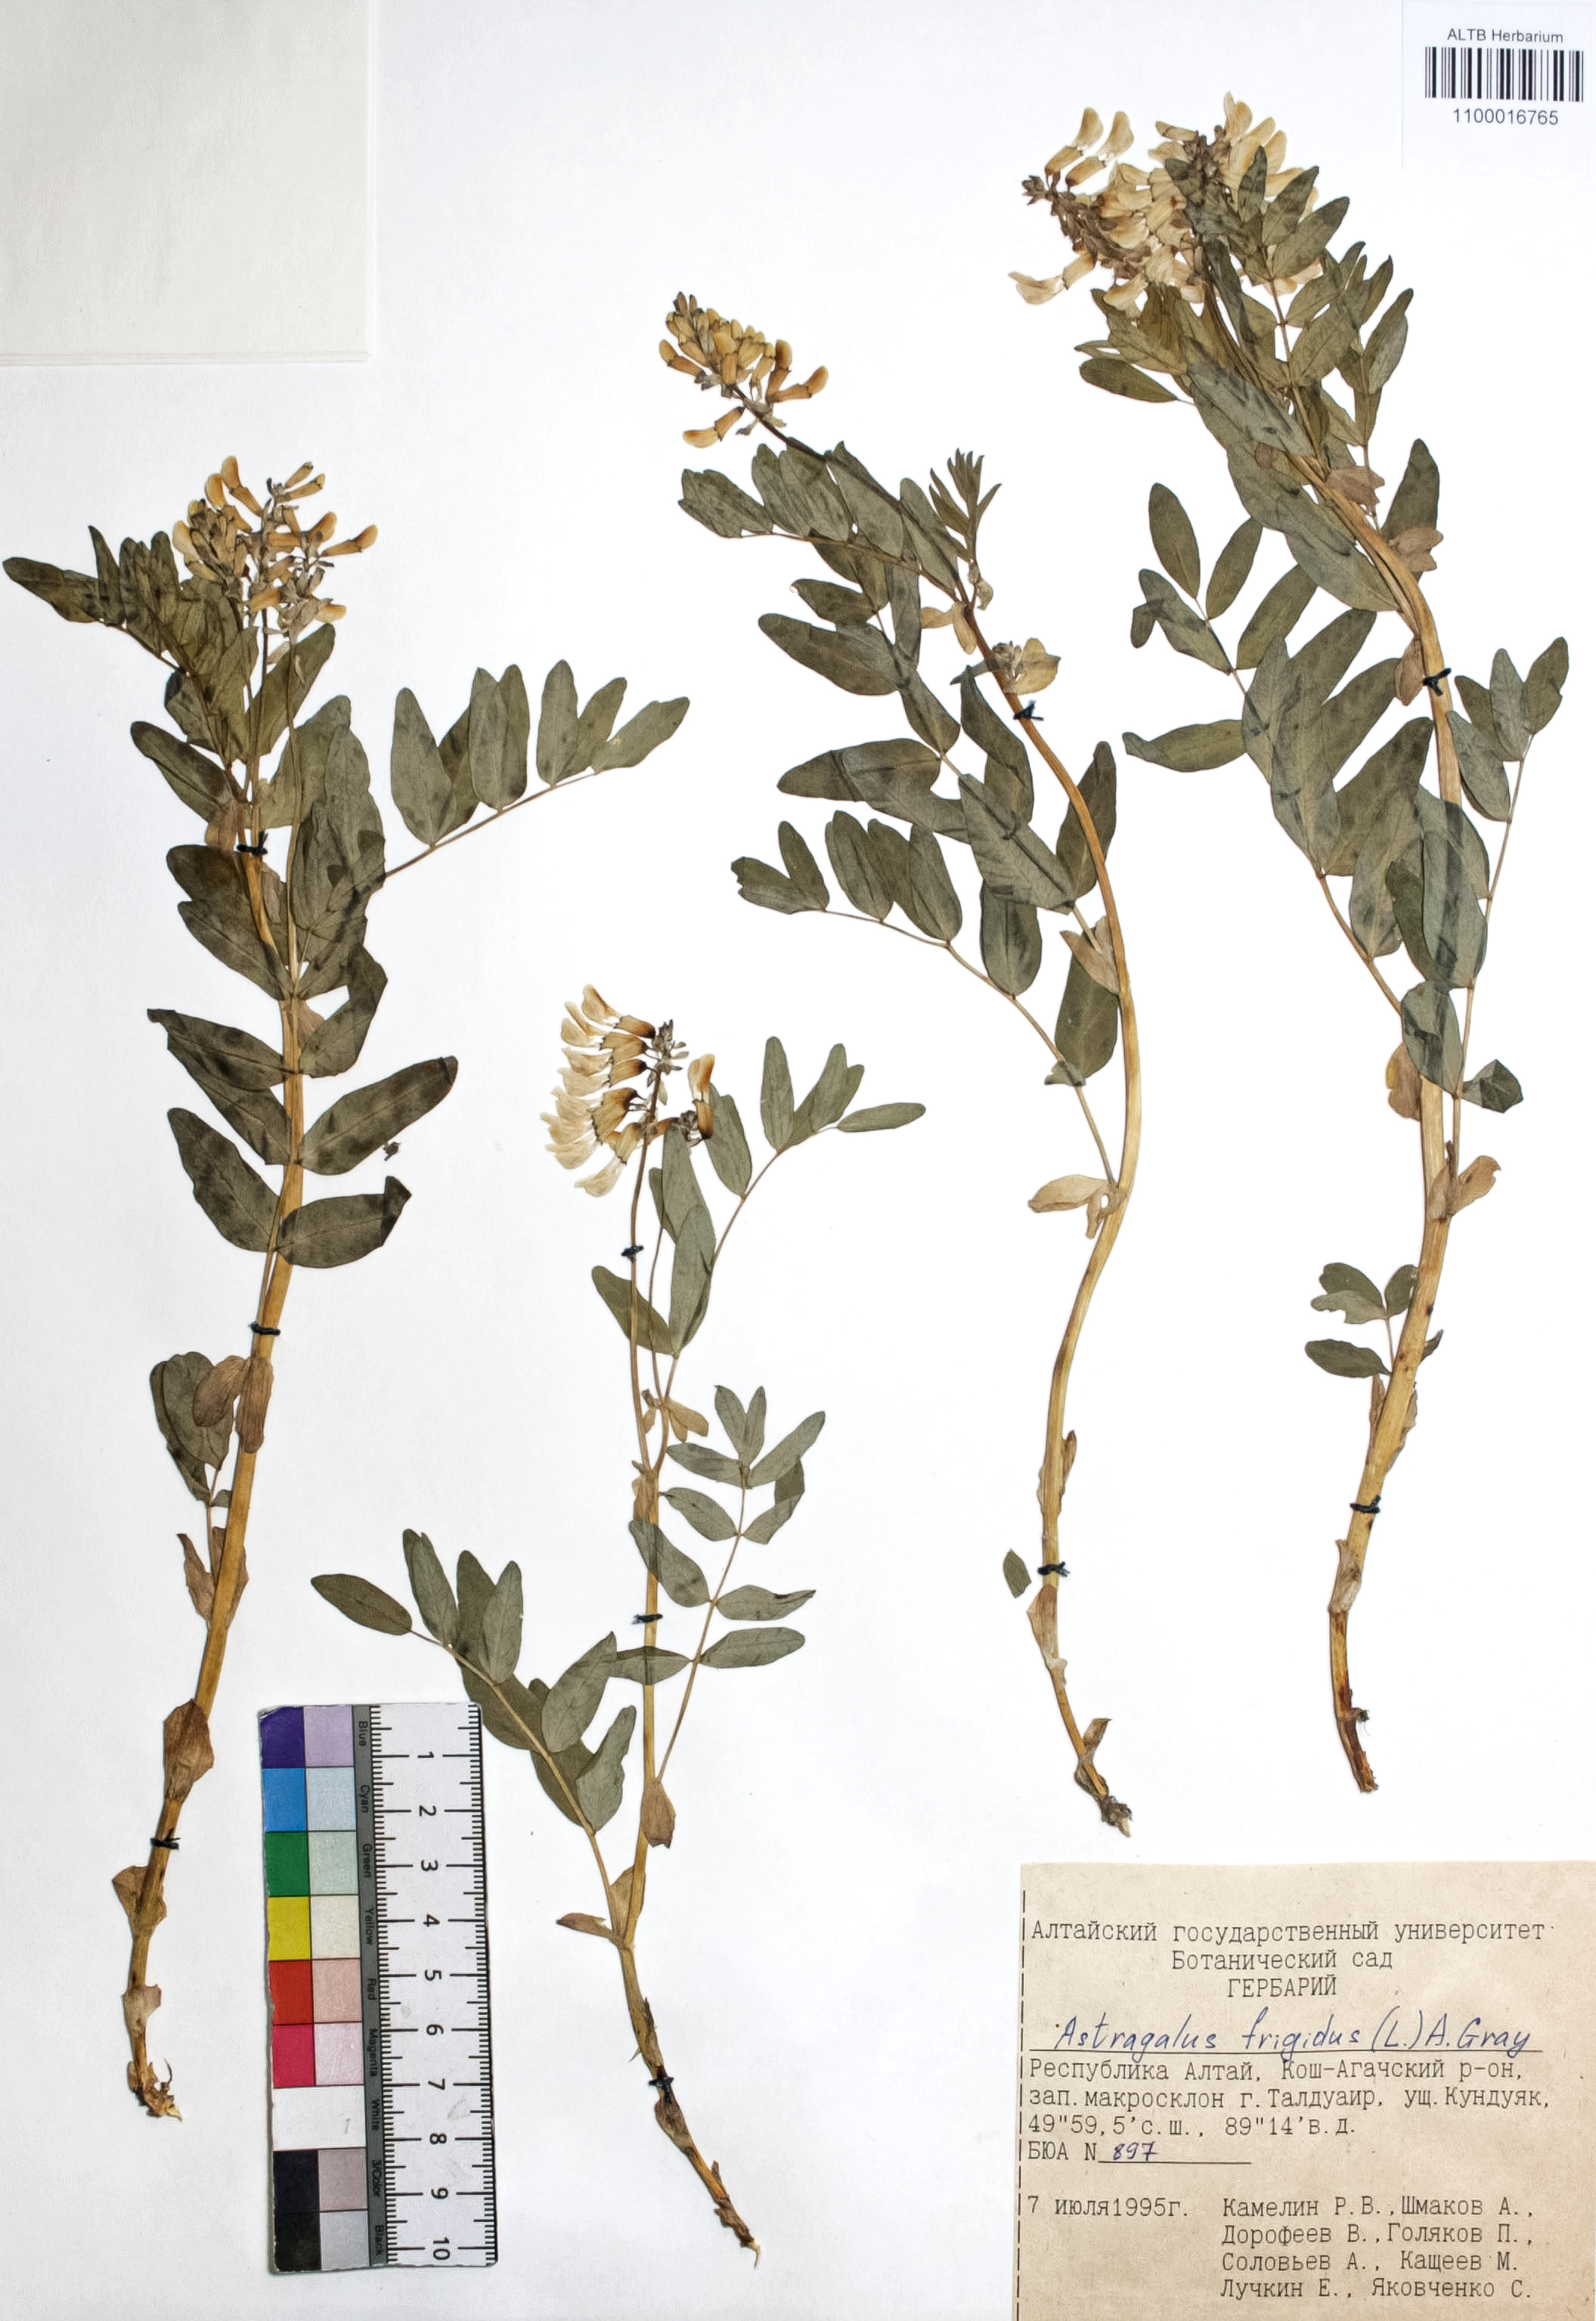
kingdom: Plantae
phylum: Tracheophyta
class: Magnoliopsida
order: Fabales
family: Fabaceae
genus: Astragalus
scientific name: Astragalus frigidus
